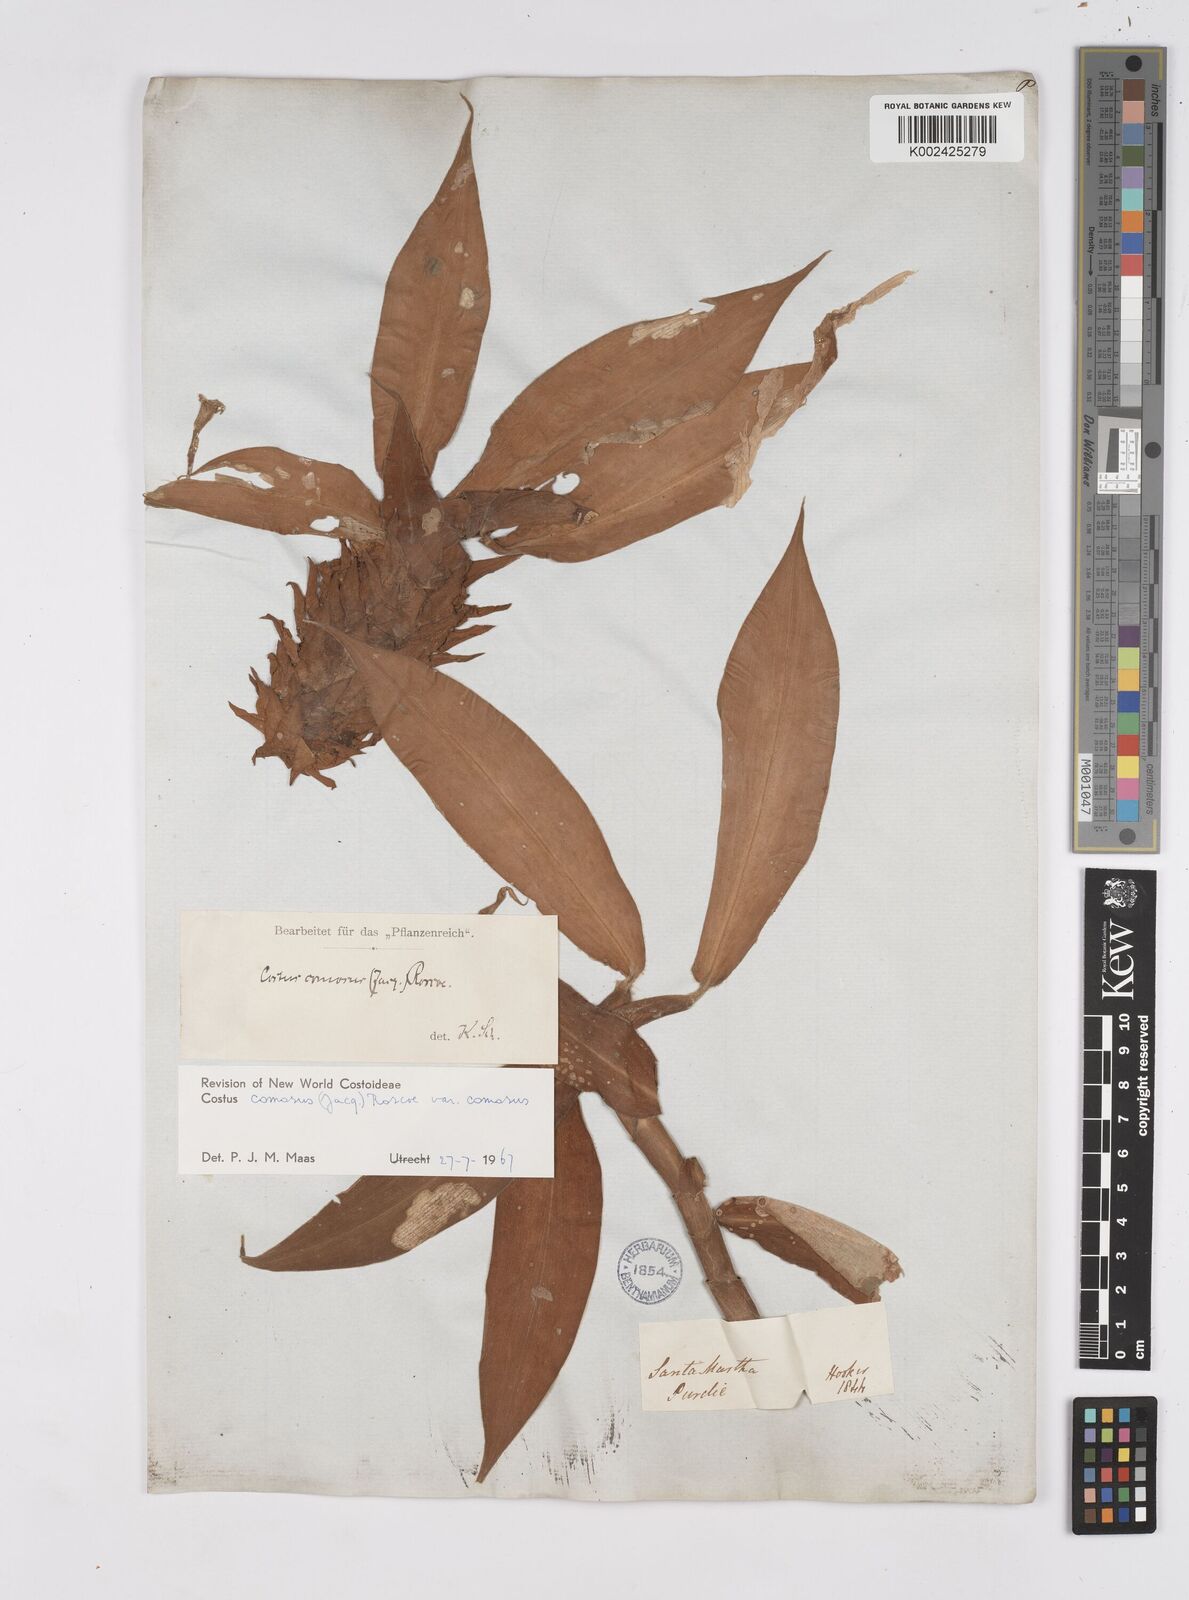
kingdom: Plantae
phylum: Tracheophyta
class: Liliopsida
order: Zingiberales
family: Costaceae
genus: Costus
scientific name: Costus comosus
